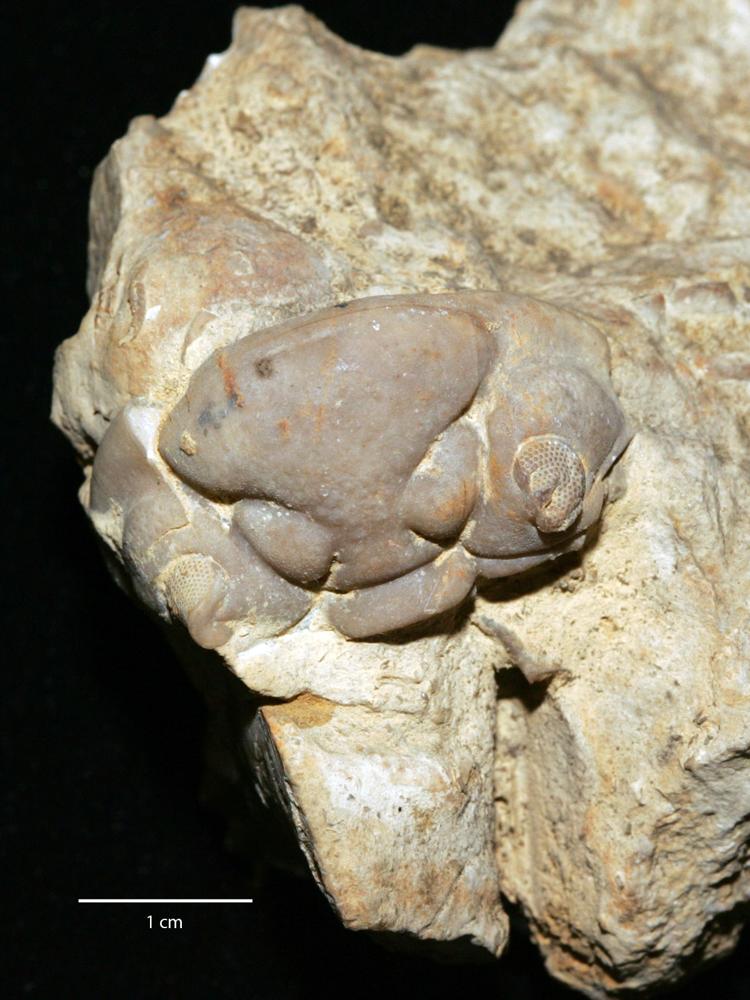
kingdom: Animalia
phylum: Arthropoda
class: Trilobita
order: Phacopida
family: Pterygometopidae
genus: Chasmops
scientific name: Chasmops Phacops wesenbergensis
